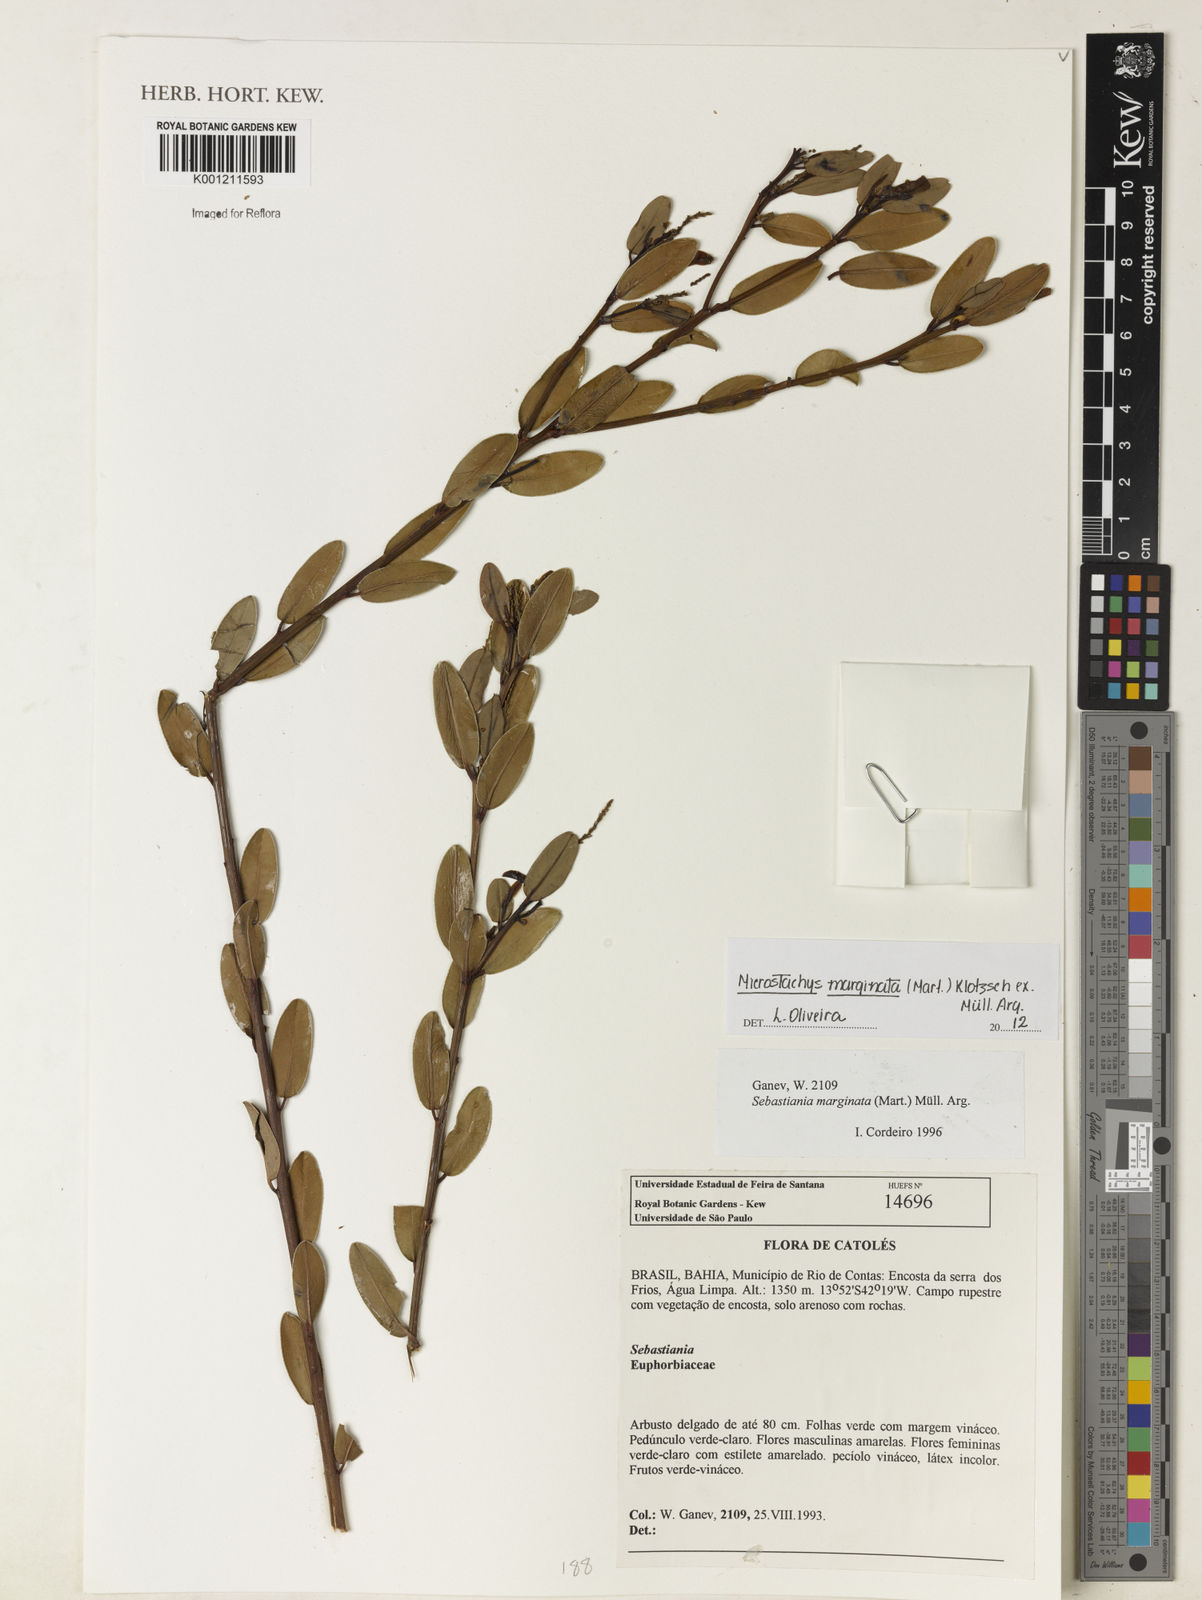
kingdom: Plantae
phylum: Tracheophyta
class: Magnoliopsida
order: Malpighiales
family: Euphorbiaceae
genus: Microstachys
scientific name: Microstachys
